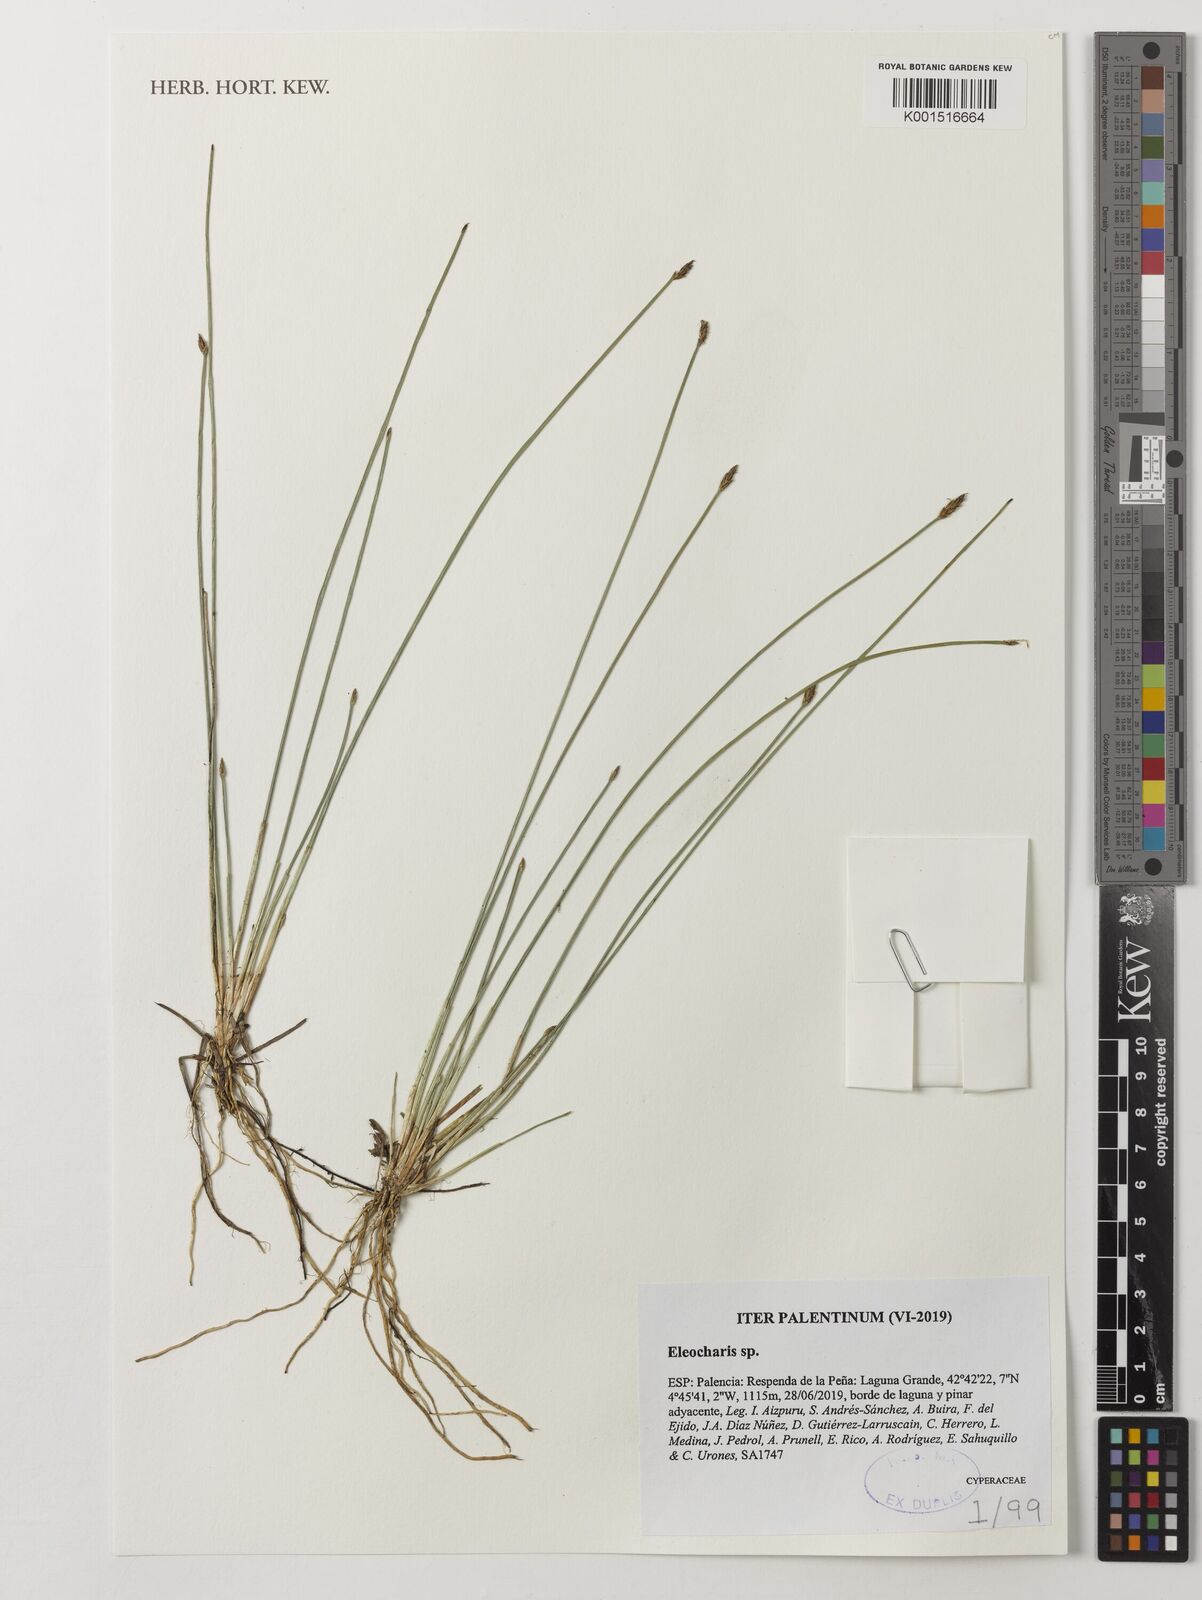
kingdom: Plantae
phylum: Tracheophyta
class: Liliopsida
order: Poales
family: Cyperaceae
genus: Eleocharis
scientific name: Eleocharis
